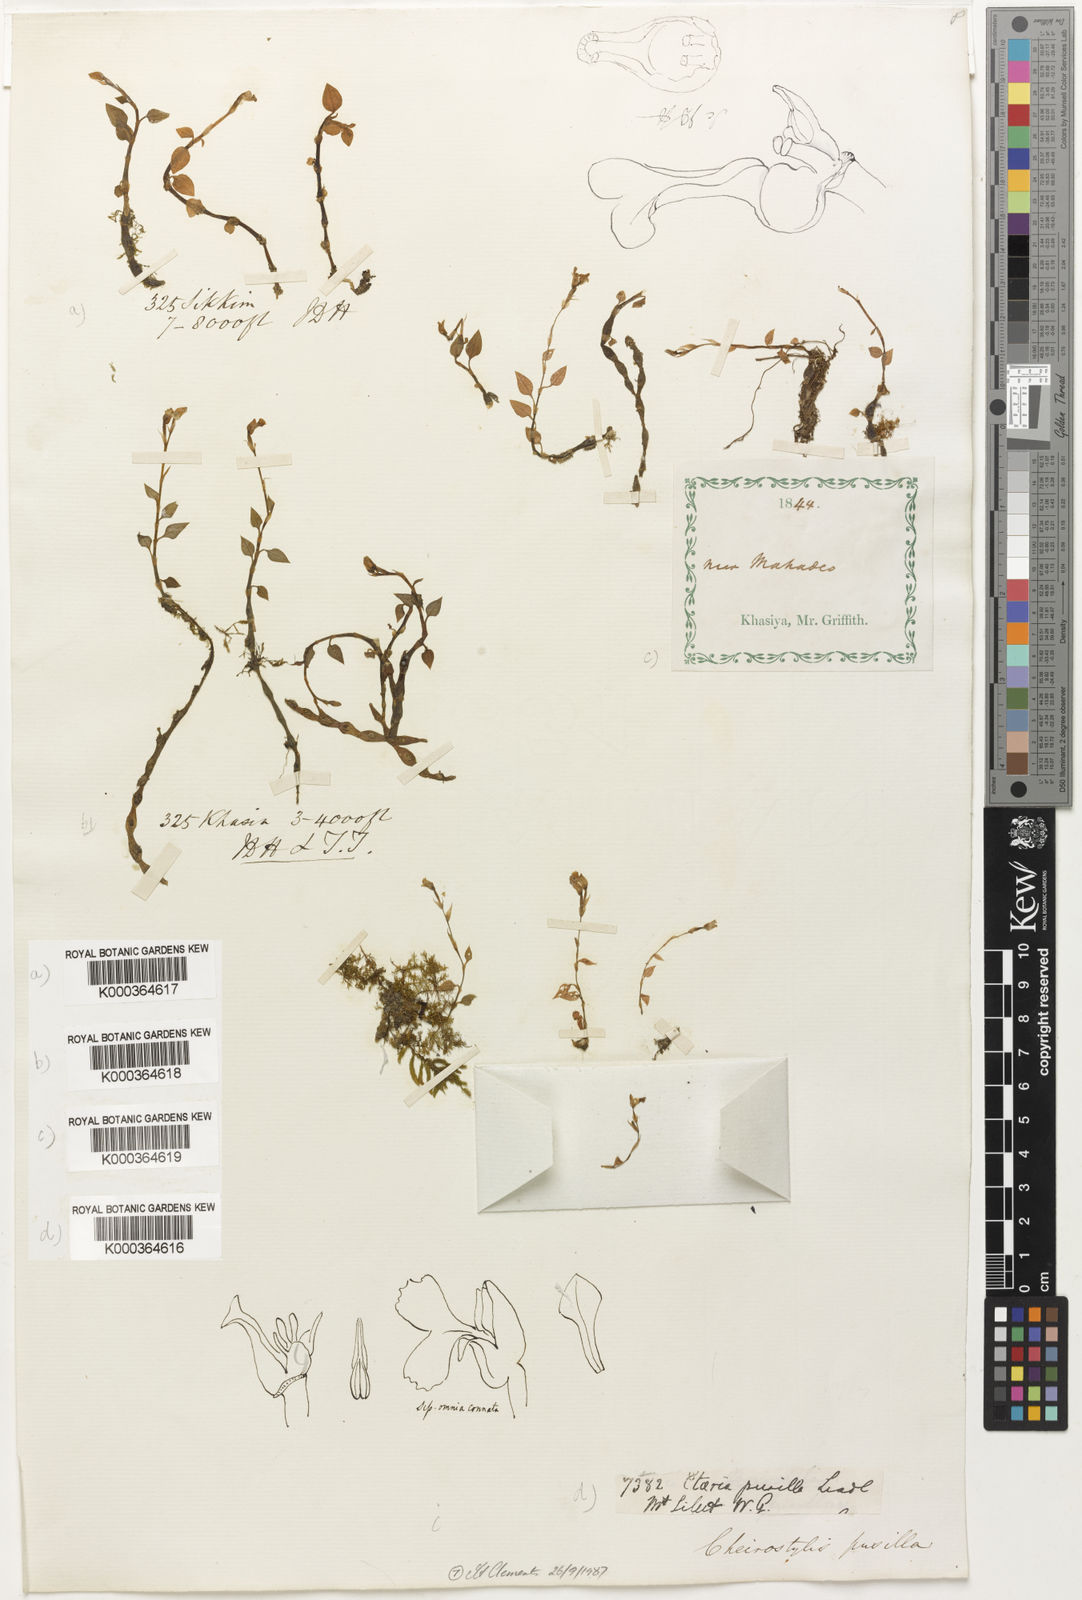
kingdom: Plantae
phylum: Tracheophyta
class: Liliopsida
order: Asparagales
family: Orchidaceae
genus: Cheirostylis
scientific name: Cheirostylis pusilla
